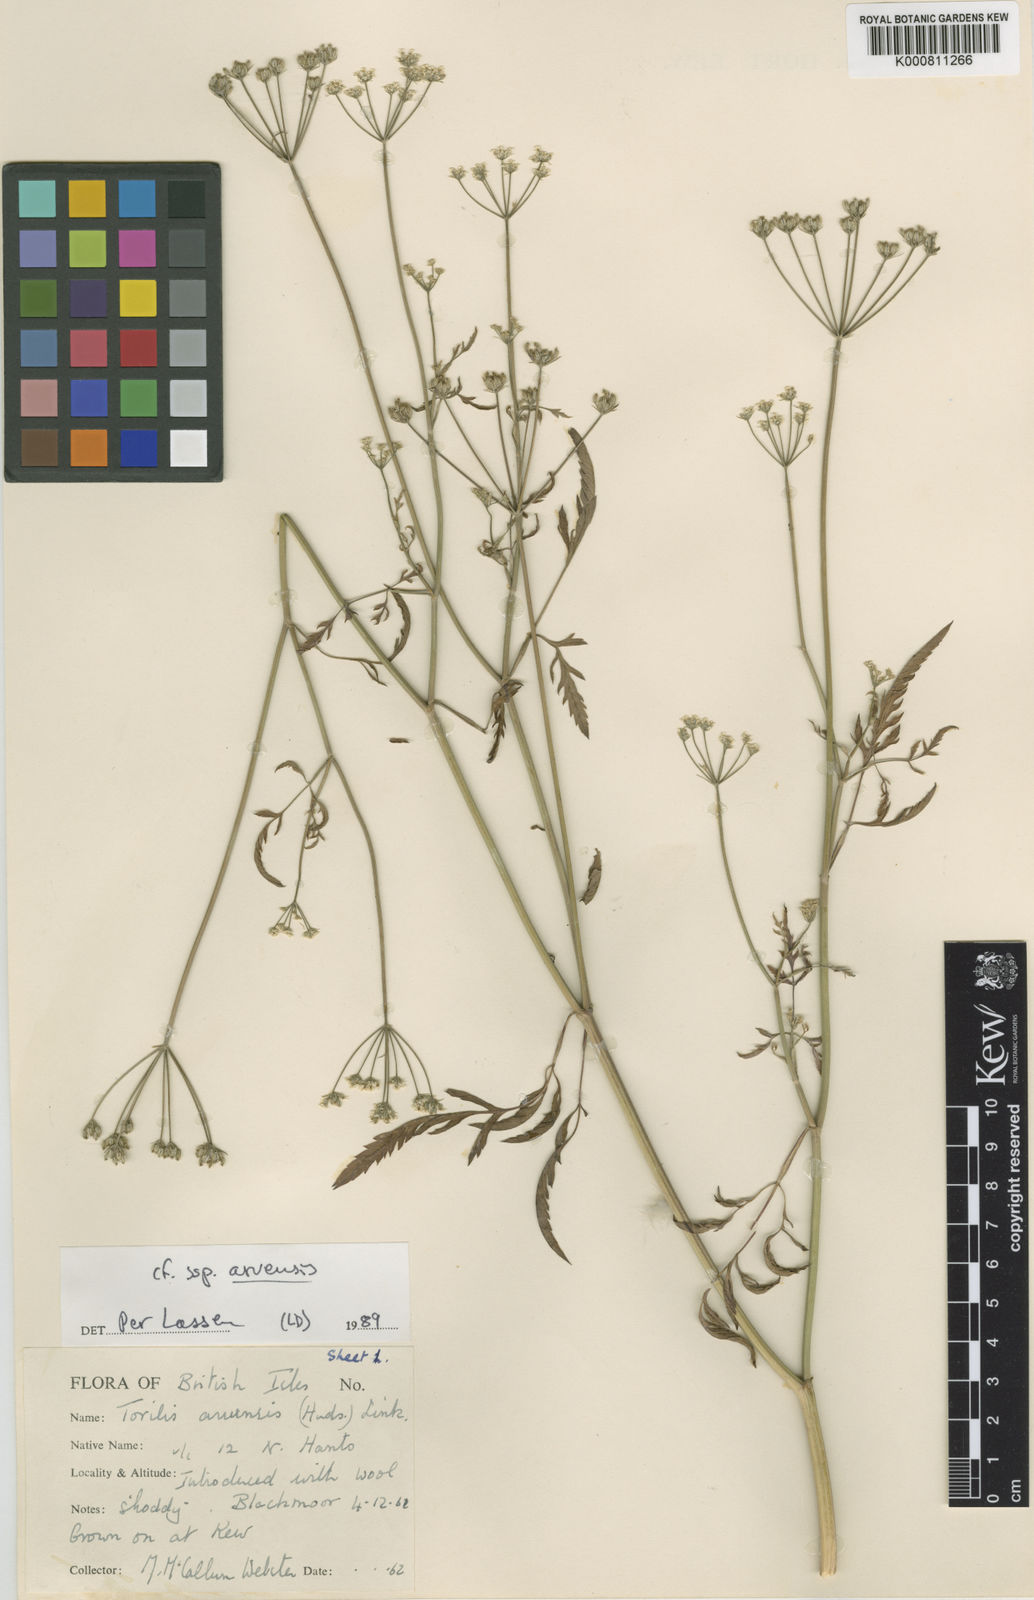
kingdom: Plantae
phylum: Tracheophyta
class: Magnoliopsida
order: Apiales
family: Apiaceae
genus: Torilis
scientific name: Torilis arvensis
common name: Spreading hedge-parsley
